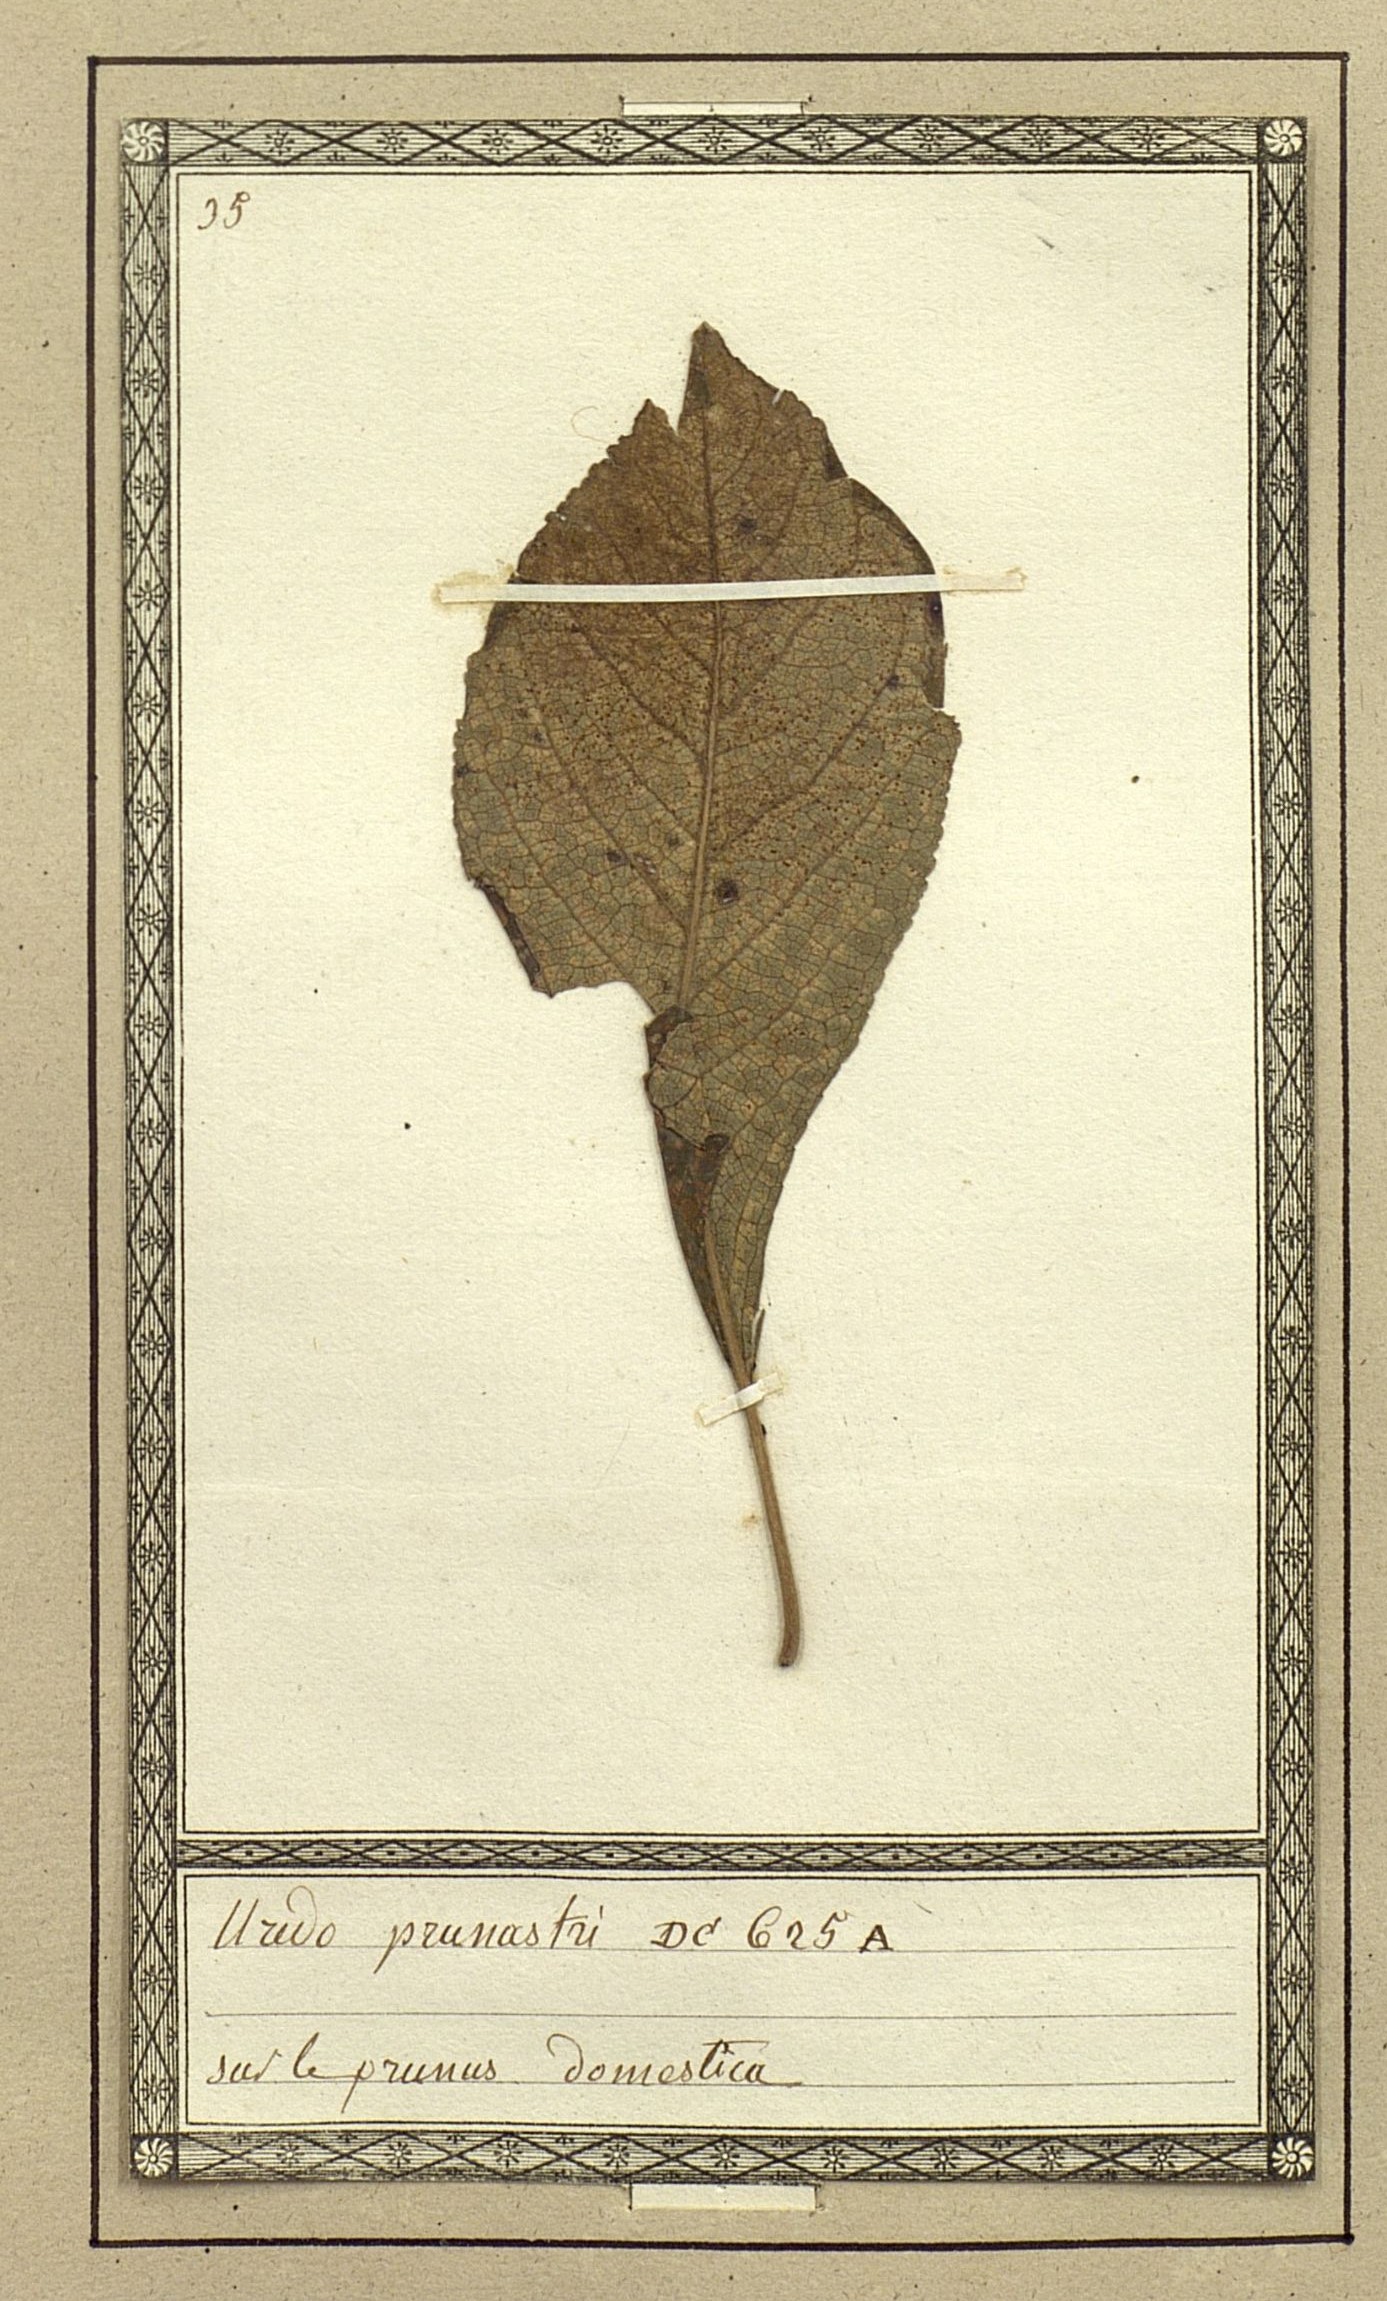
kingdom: Fungi
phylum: Basidiomycota
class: Pucciniomycetes
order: Pucciniales
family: Pucciniaceae
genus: Uredo
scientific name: Uredo
